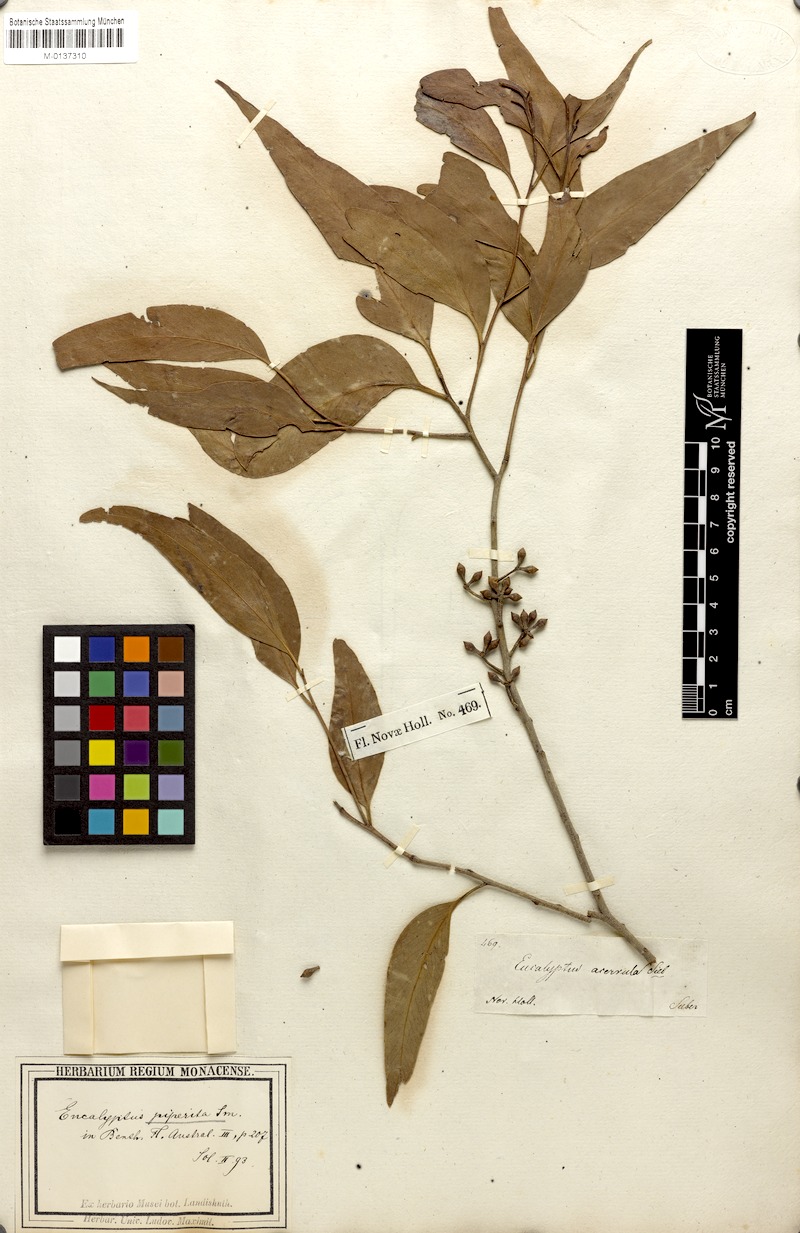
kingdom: Plantae
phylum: Tracheophyta
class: Magnoliopsida
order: Myrtales
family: Myrtaceae
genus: Eucalyptus
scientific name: Eucalyptus eugenioides
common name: Narrow-leaved-stringybark
